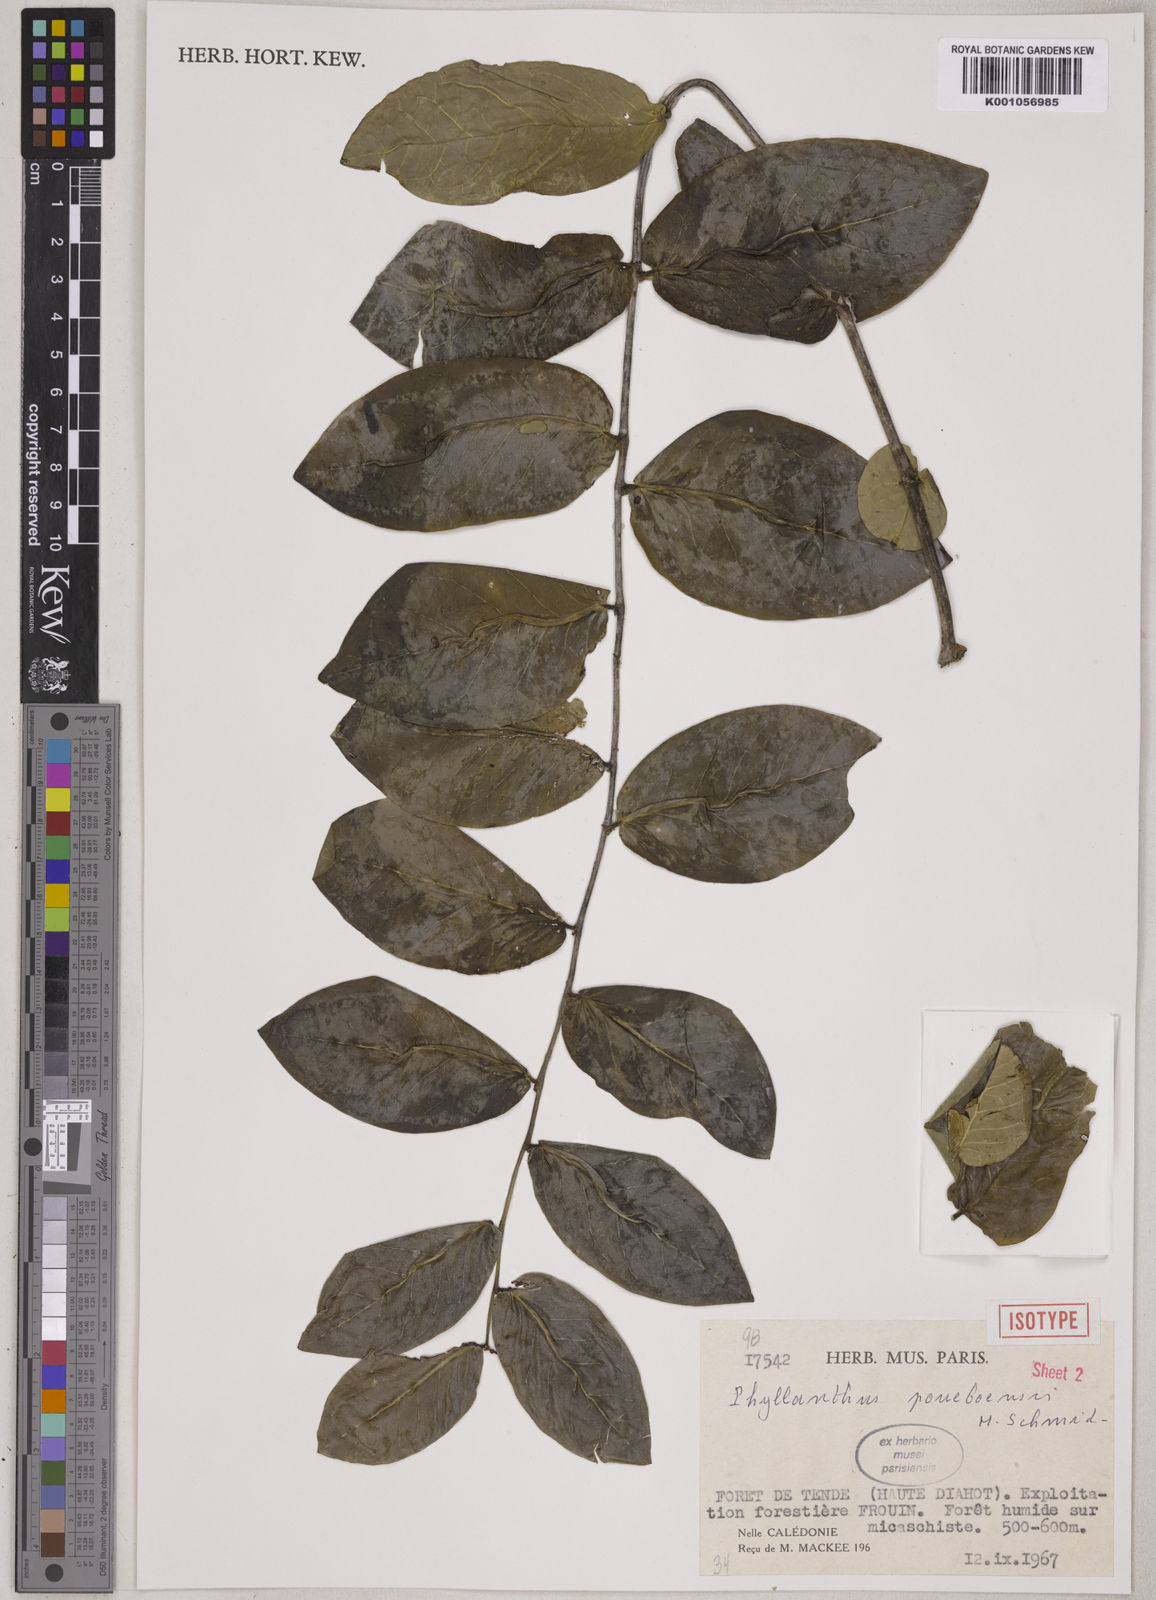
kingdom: Plantae
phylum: Tracheophyta
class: Magnoliopsida
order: Malpighiales
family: Phyllanthaceae
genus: Phyllanthus
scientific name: Phyllanthus poueboensis
